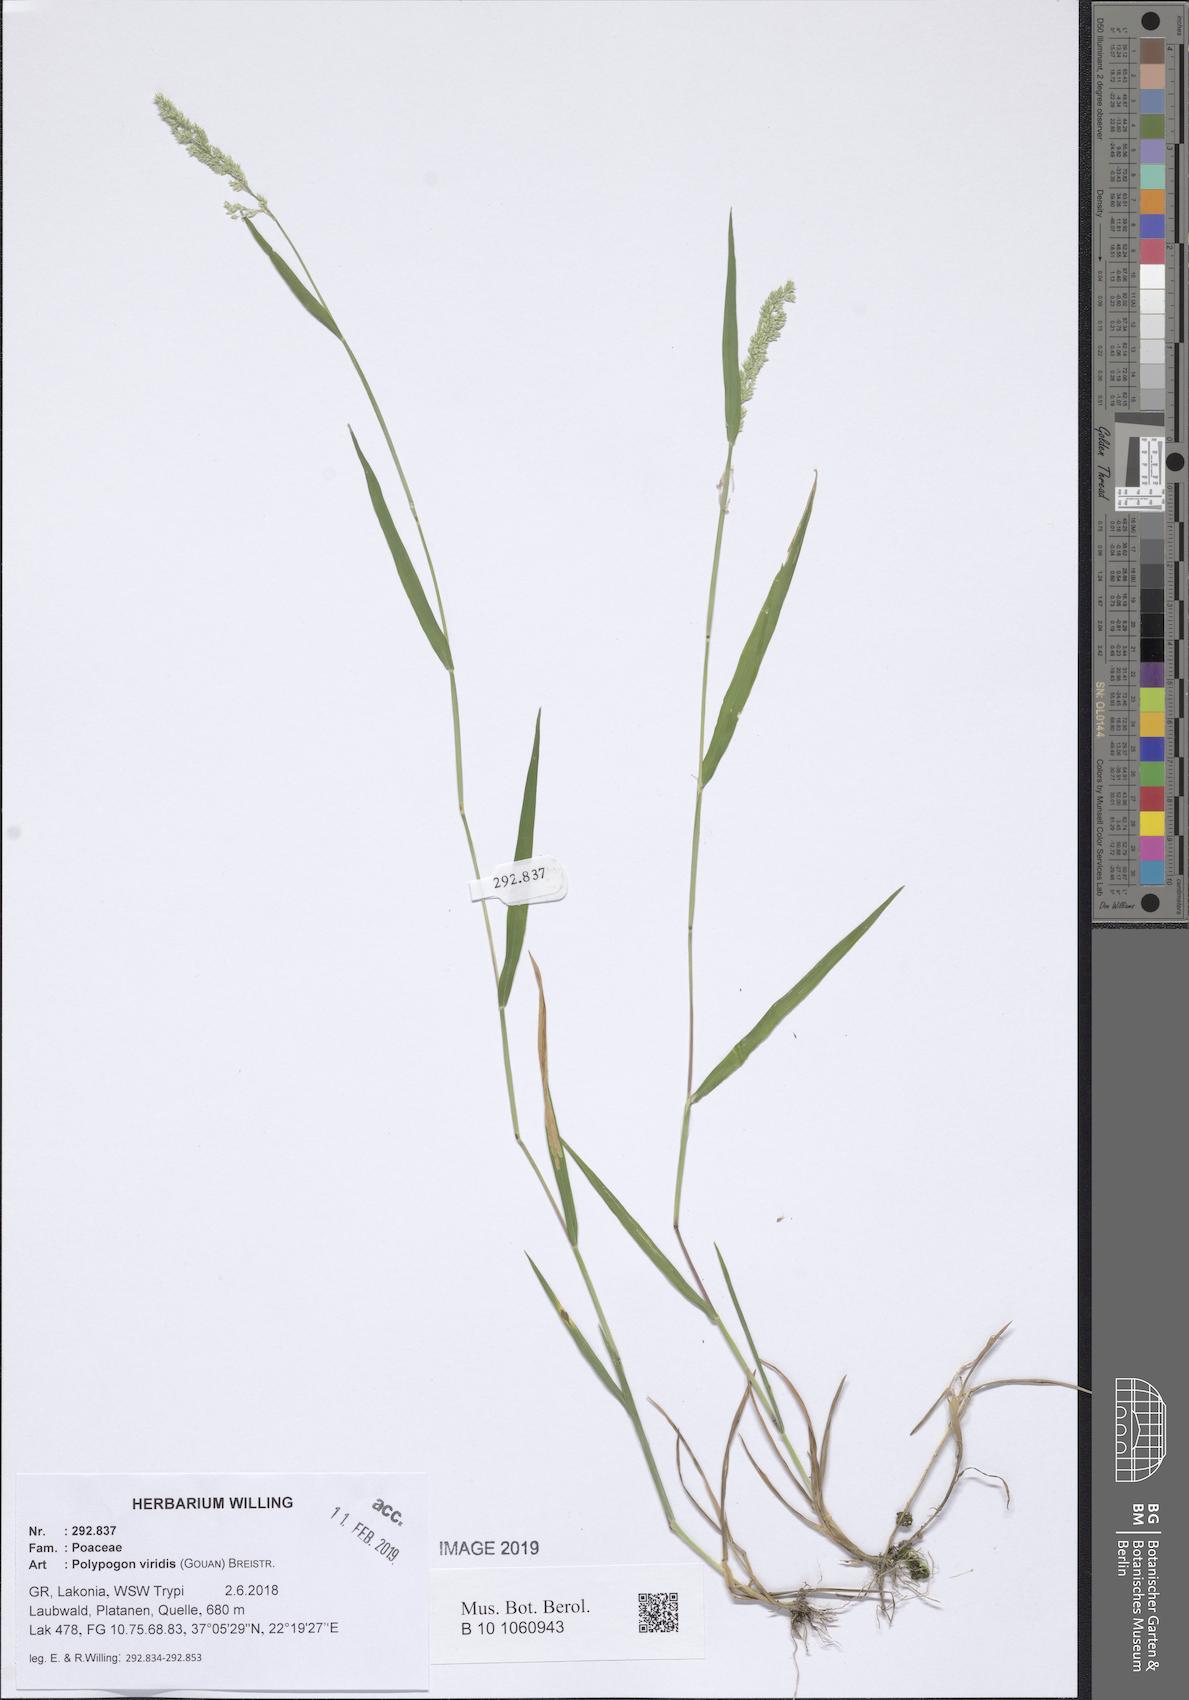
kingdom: Plantae
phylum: Tracheophyta
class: Liliopsida
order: Poales
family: Poaceae
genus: Polypogon
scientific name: Polypogon viridis
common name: Water bent
